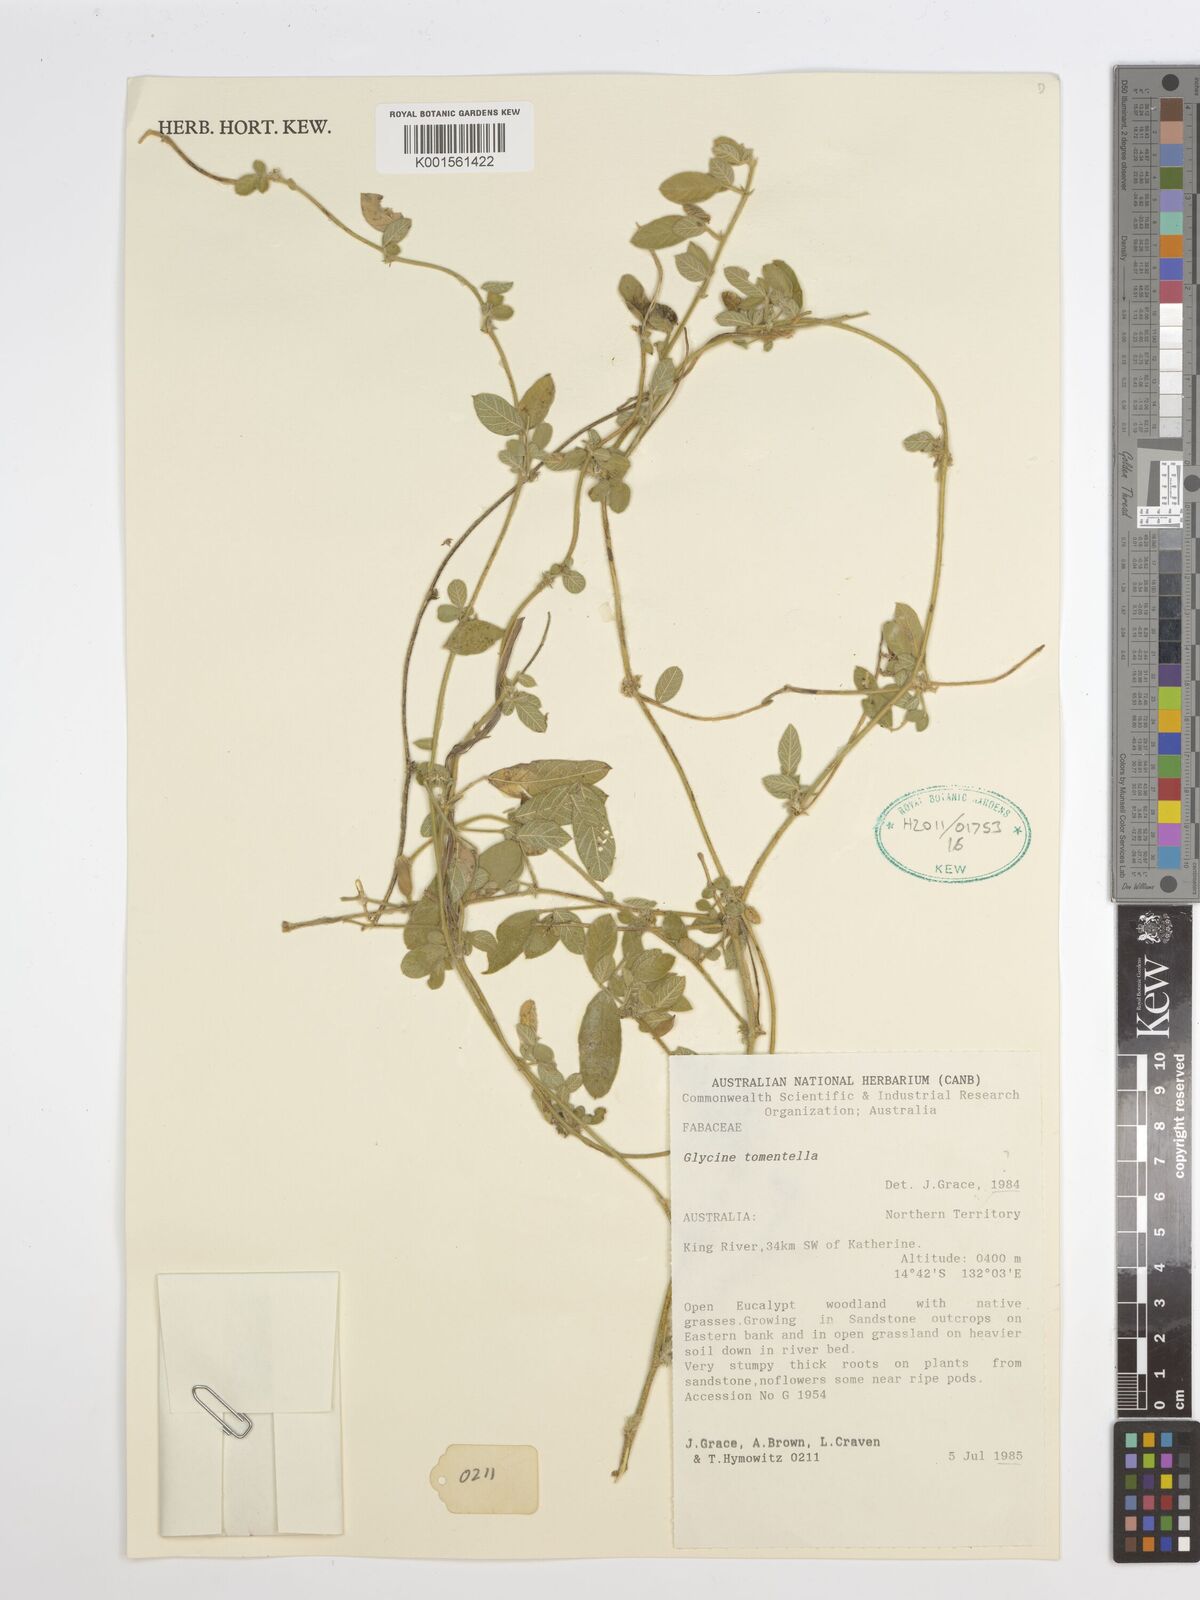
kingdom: Plantae
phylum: Tracheophyta
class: Magnoliopsida
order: Fabales
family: Fabaceae
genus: Glycine
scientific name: Glycine tomentella
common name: Hairy glycine
